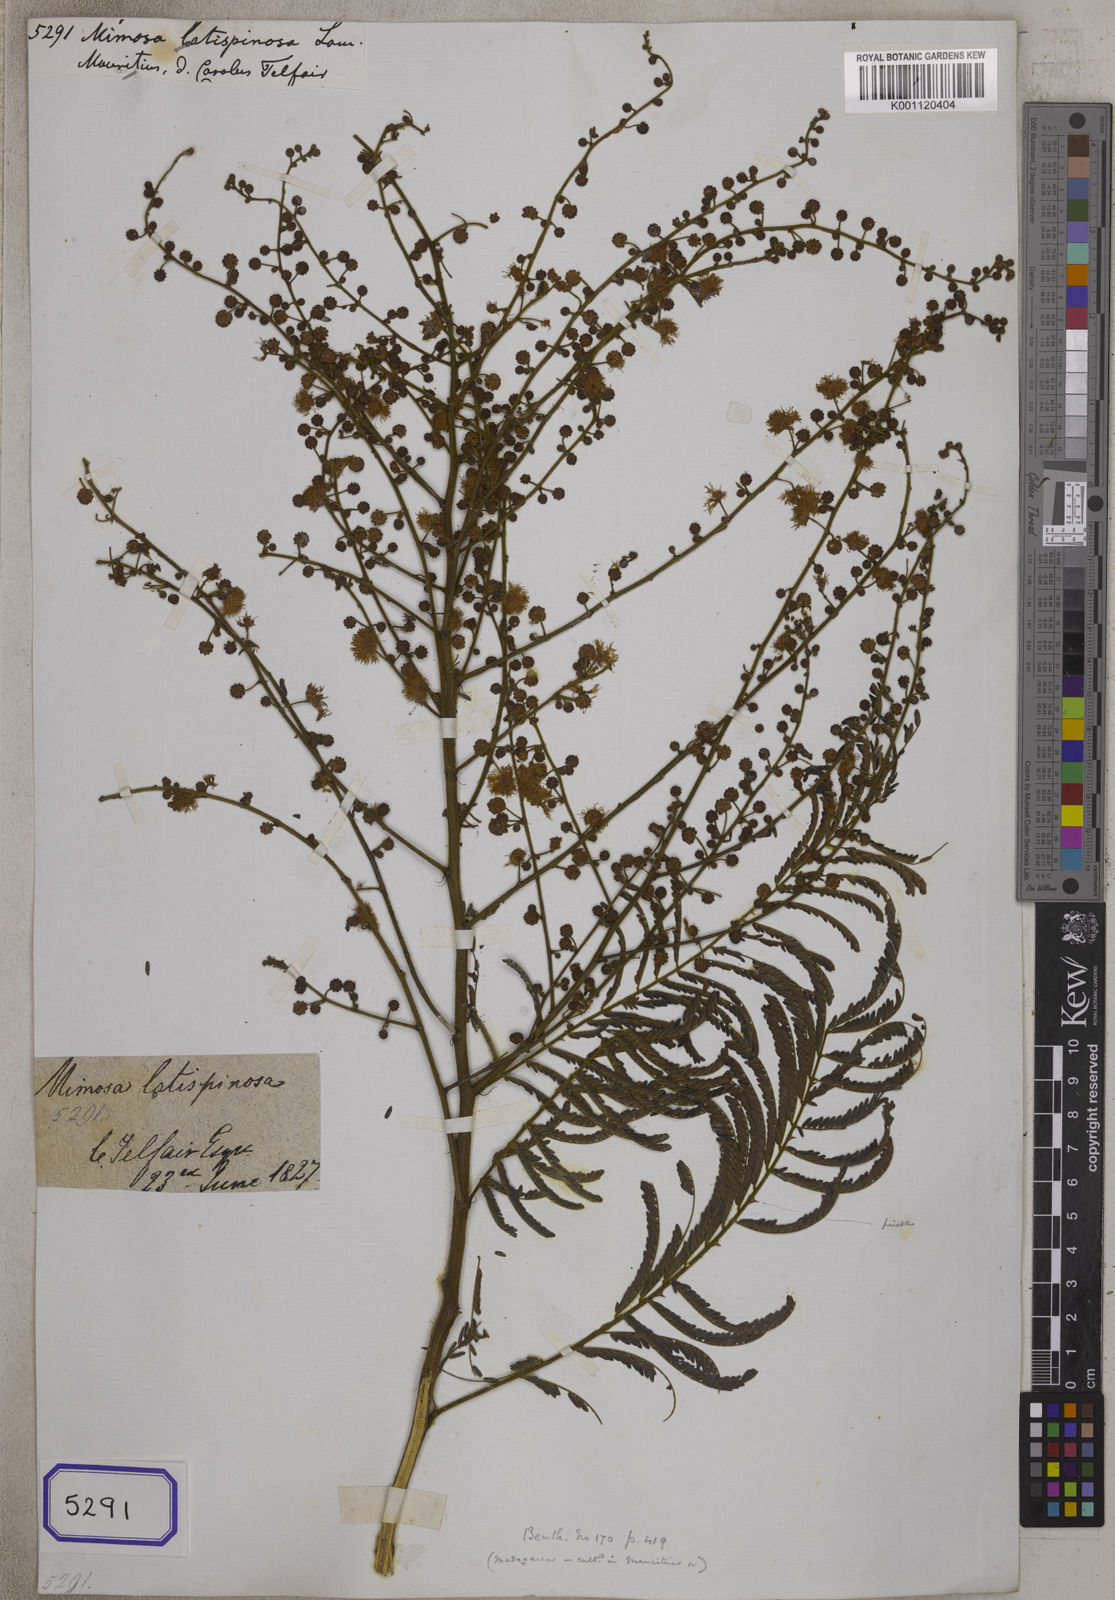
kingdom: Plantae
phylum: Tracheophyta
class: Magnoliopsida
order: Fabales
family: Fabaceae
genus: Mimosa
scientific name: Mimosa latispinosa
